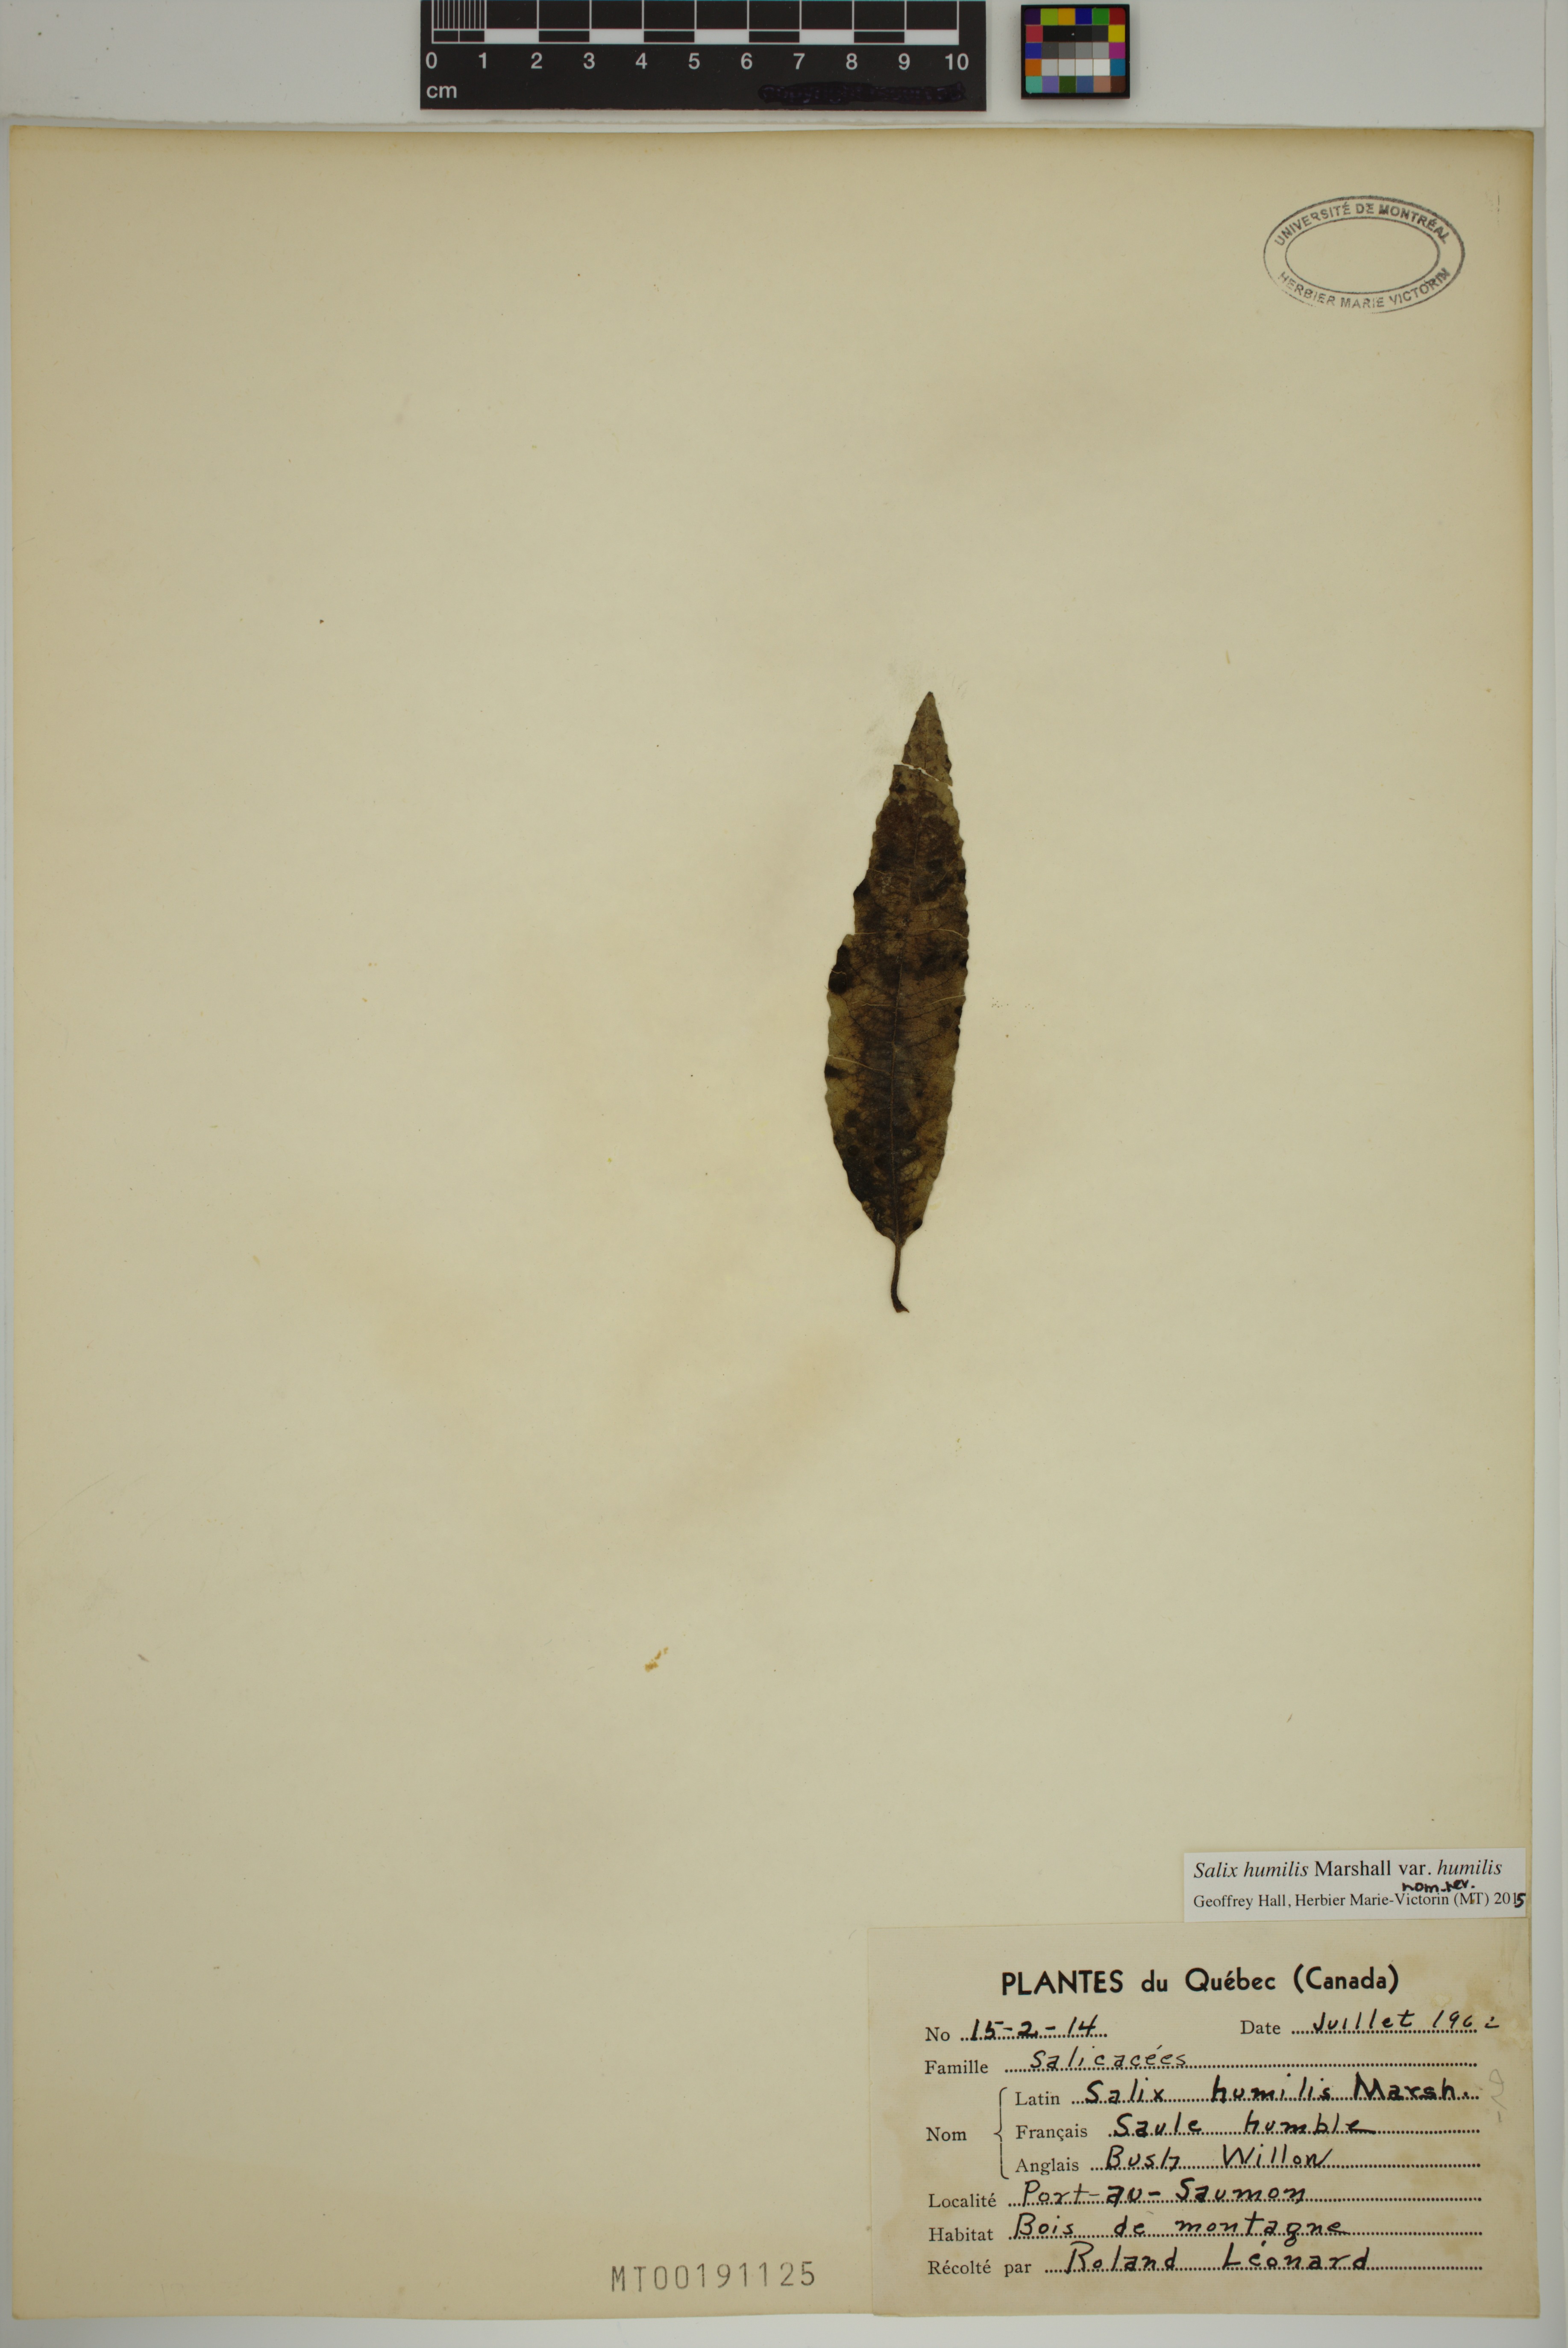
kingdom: Plantae
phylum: Tracheophyta
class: Magnoliopsida
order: Malpighiales
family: Salicaceae
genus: Salix
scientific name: Salix humilis
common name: Prairie willow
